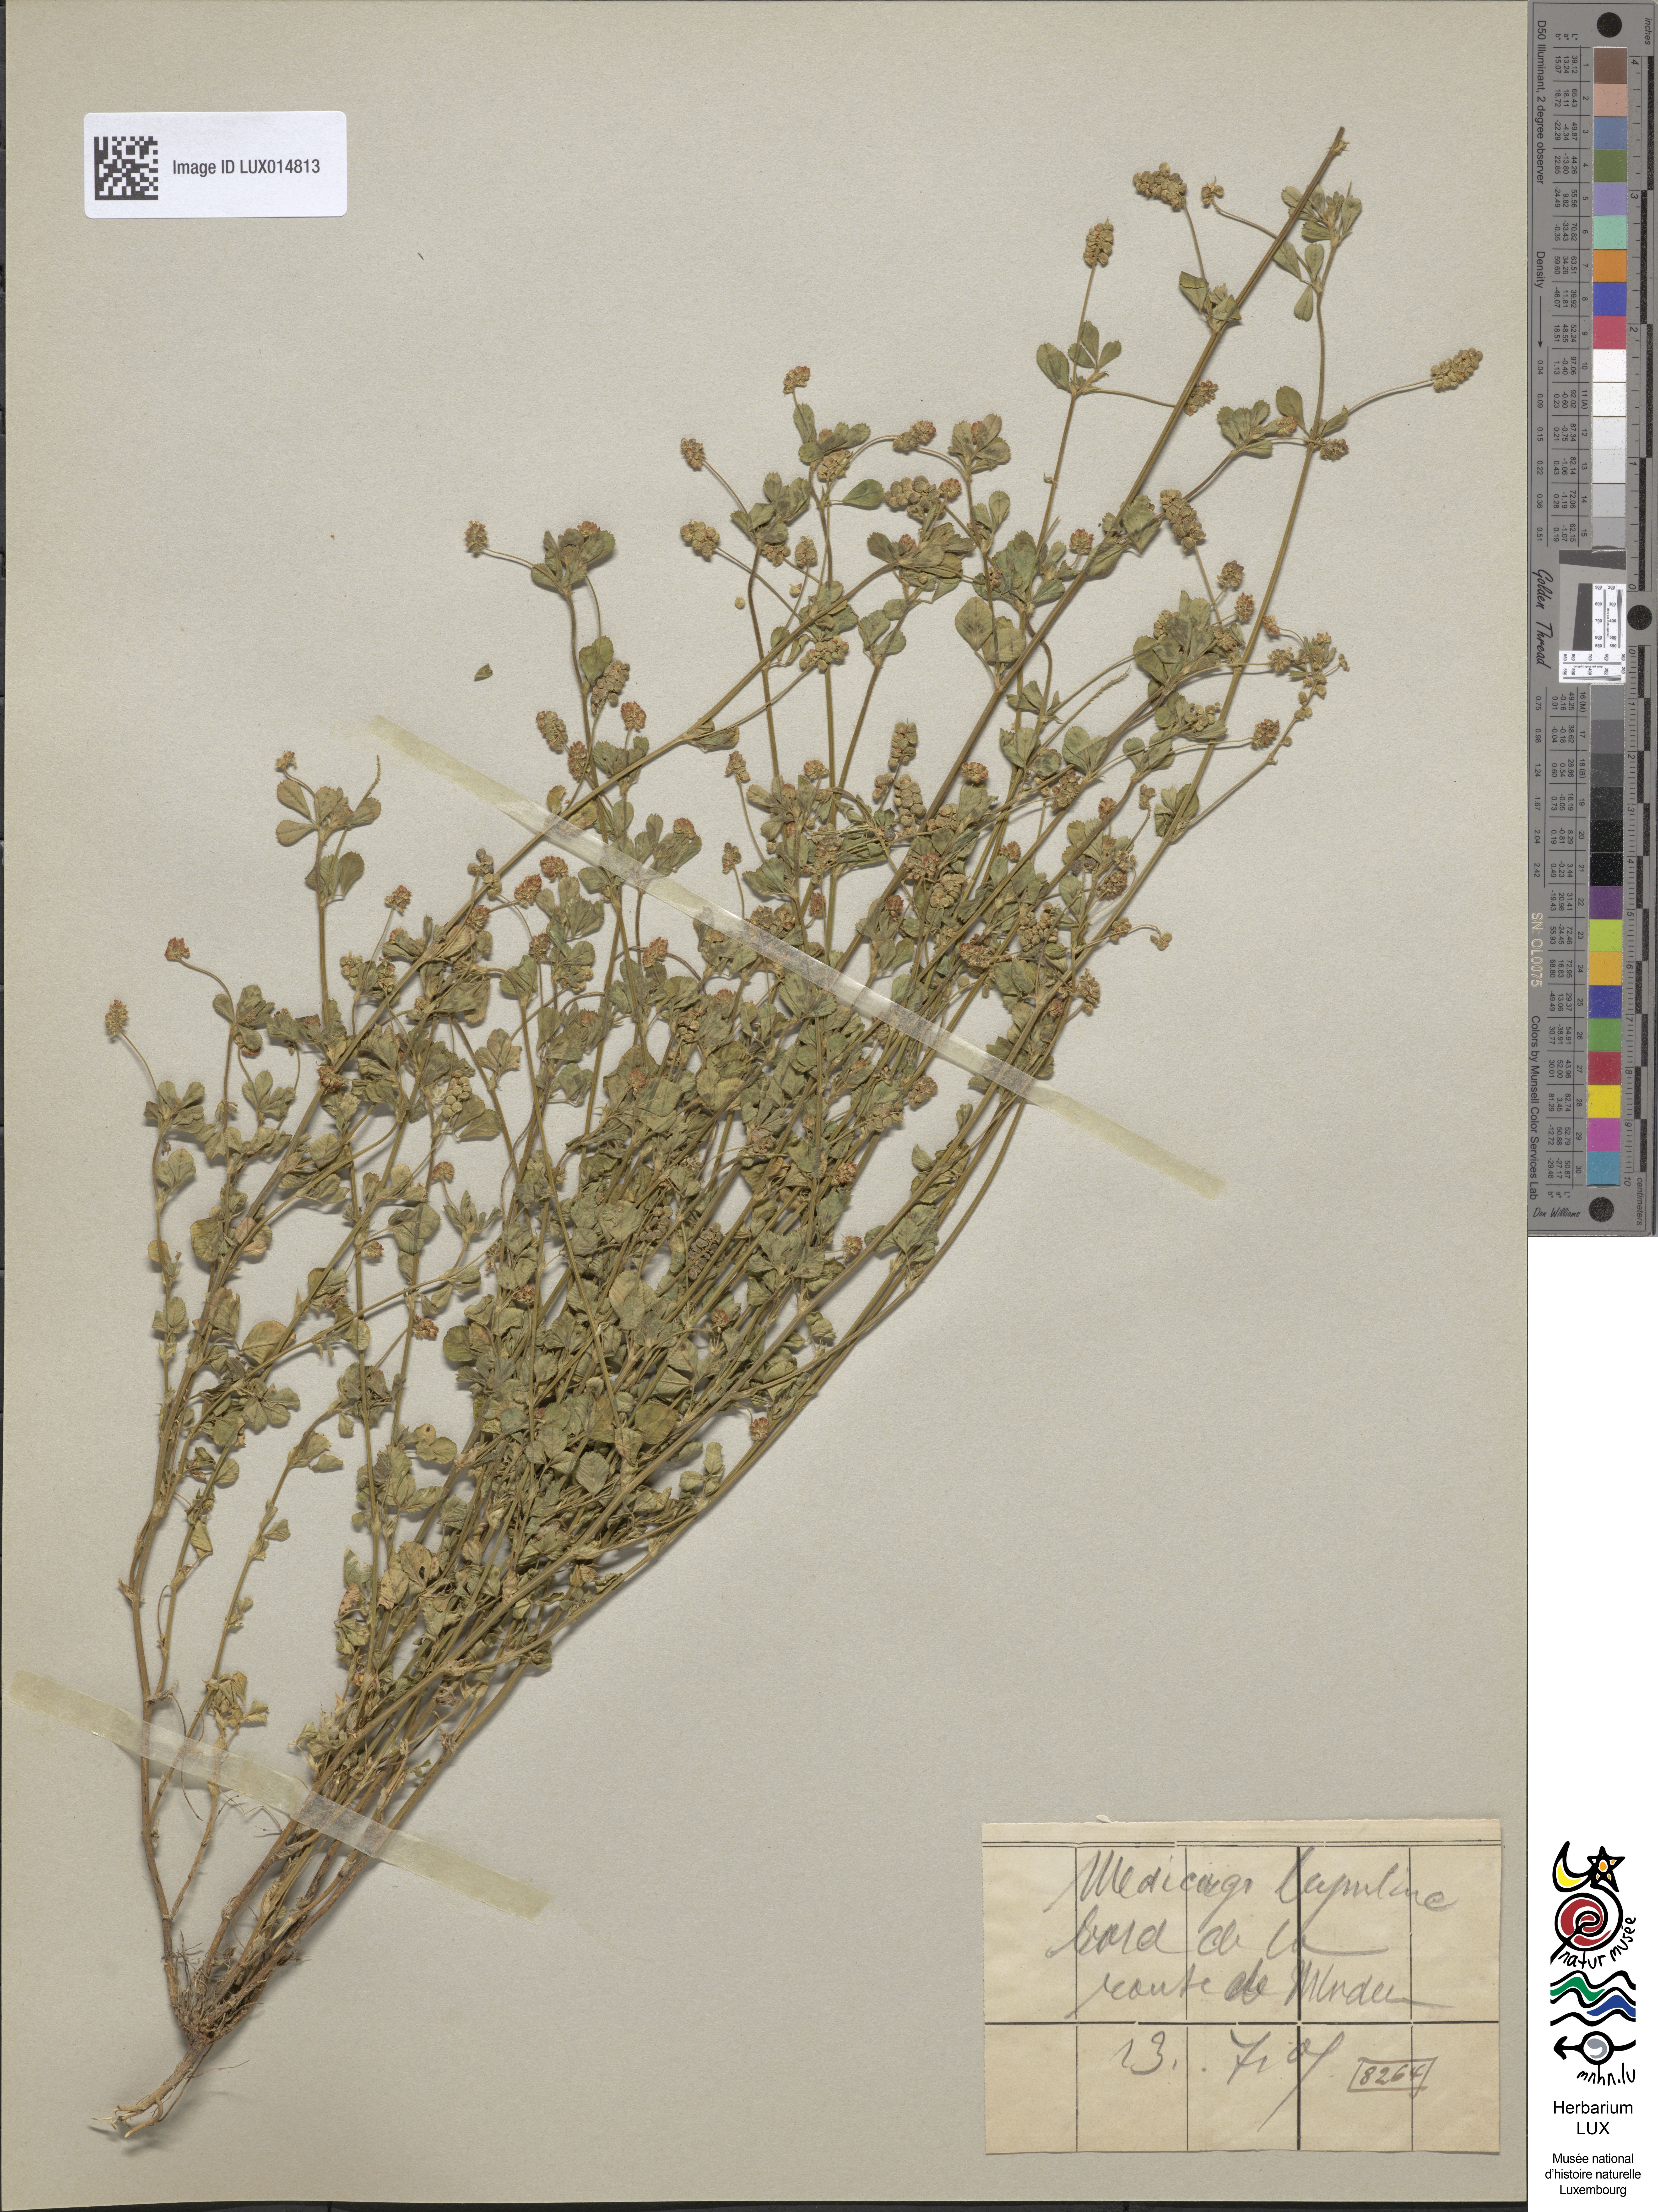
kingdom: Plantae
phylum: Tracheophyta
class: Magnoliopsida
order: Fabales
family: Fabaceae
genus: Medicago
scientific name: Medicago lupulina
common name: Black medick
